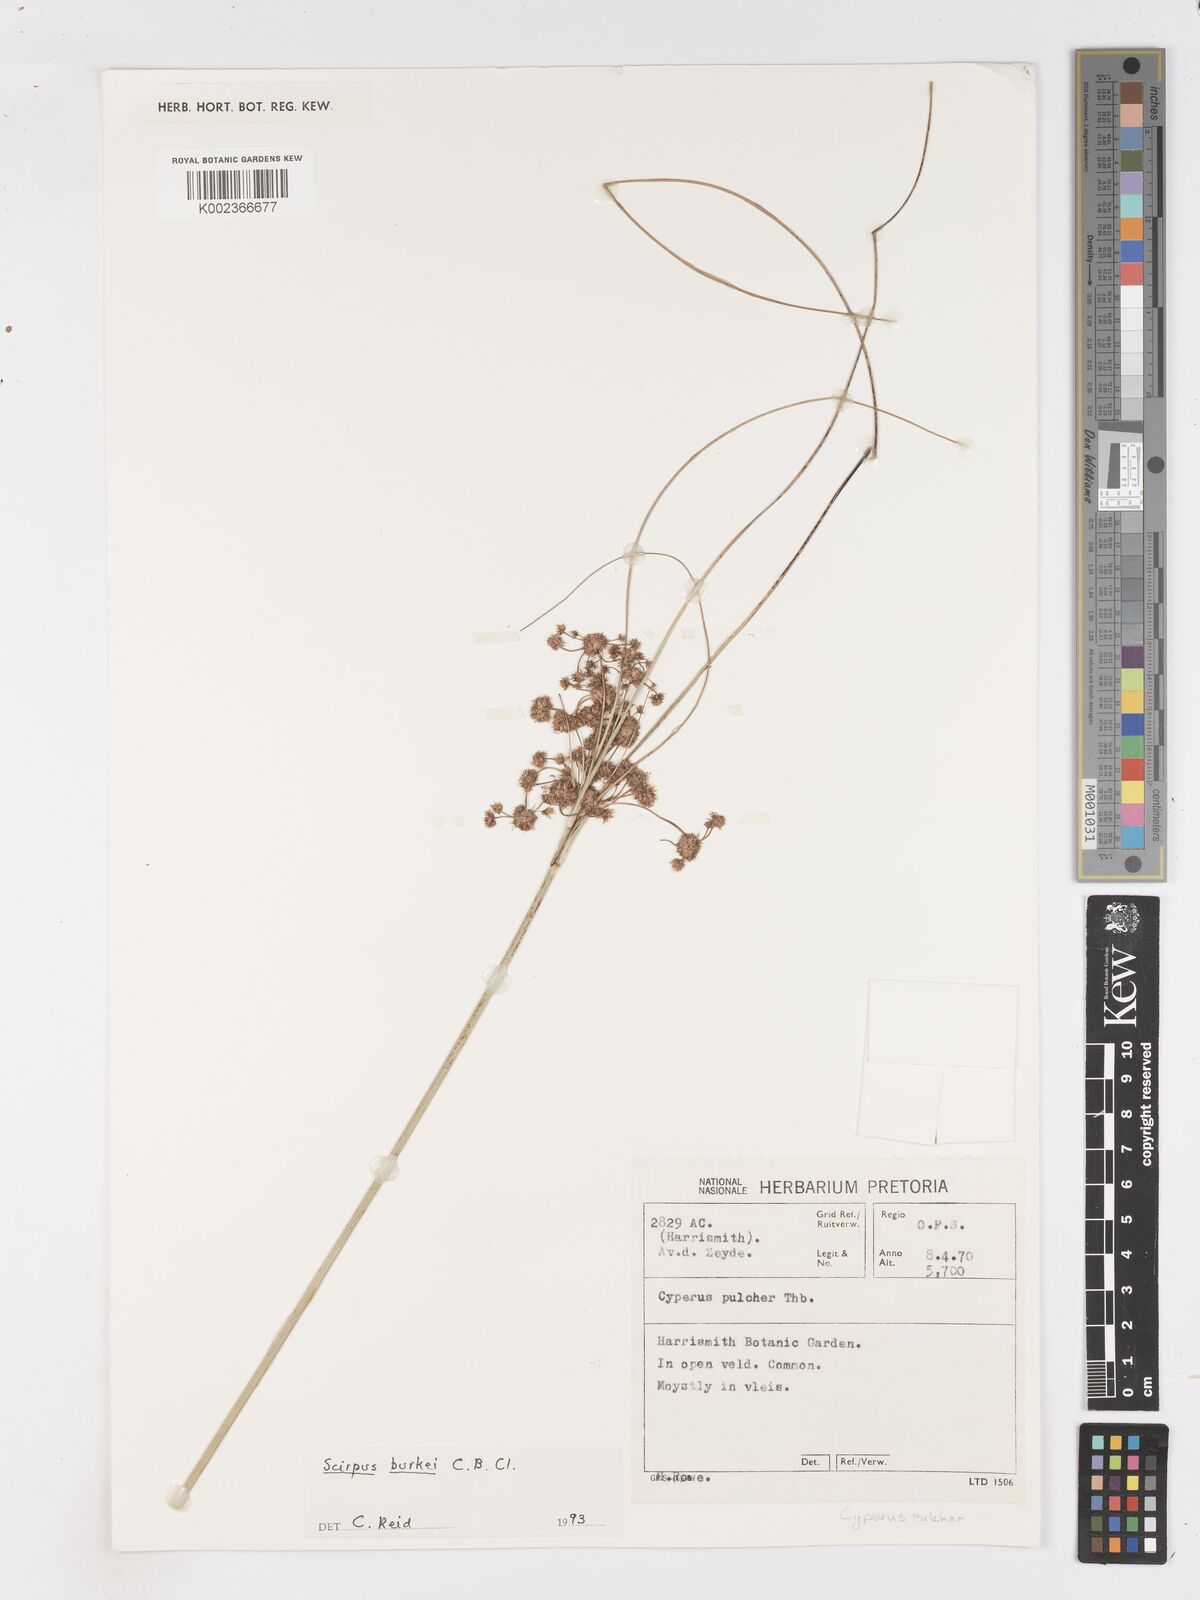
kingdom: Plantae
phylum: Tracheophyta
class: Liliopsida
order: Poales
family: Cyperaceae
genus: Scirpoides
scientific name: Scirpoides burkei
